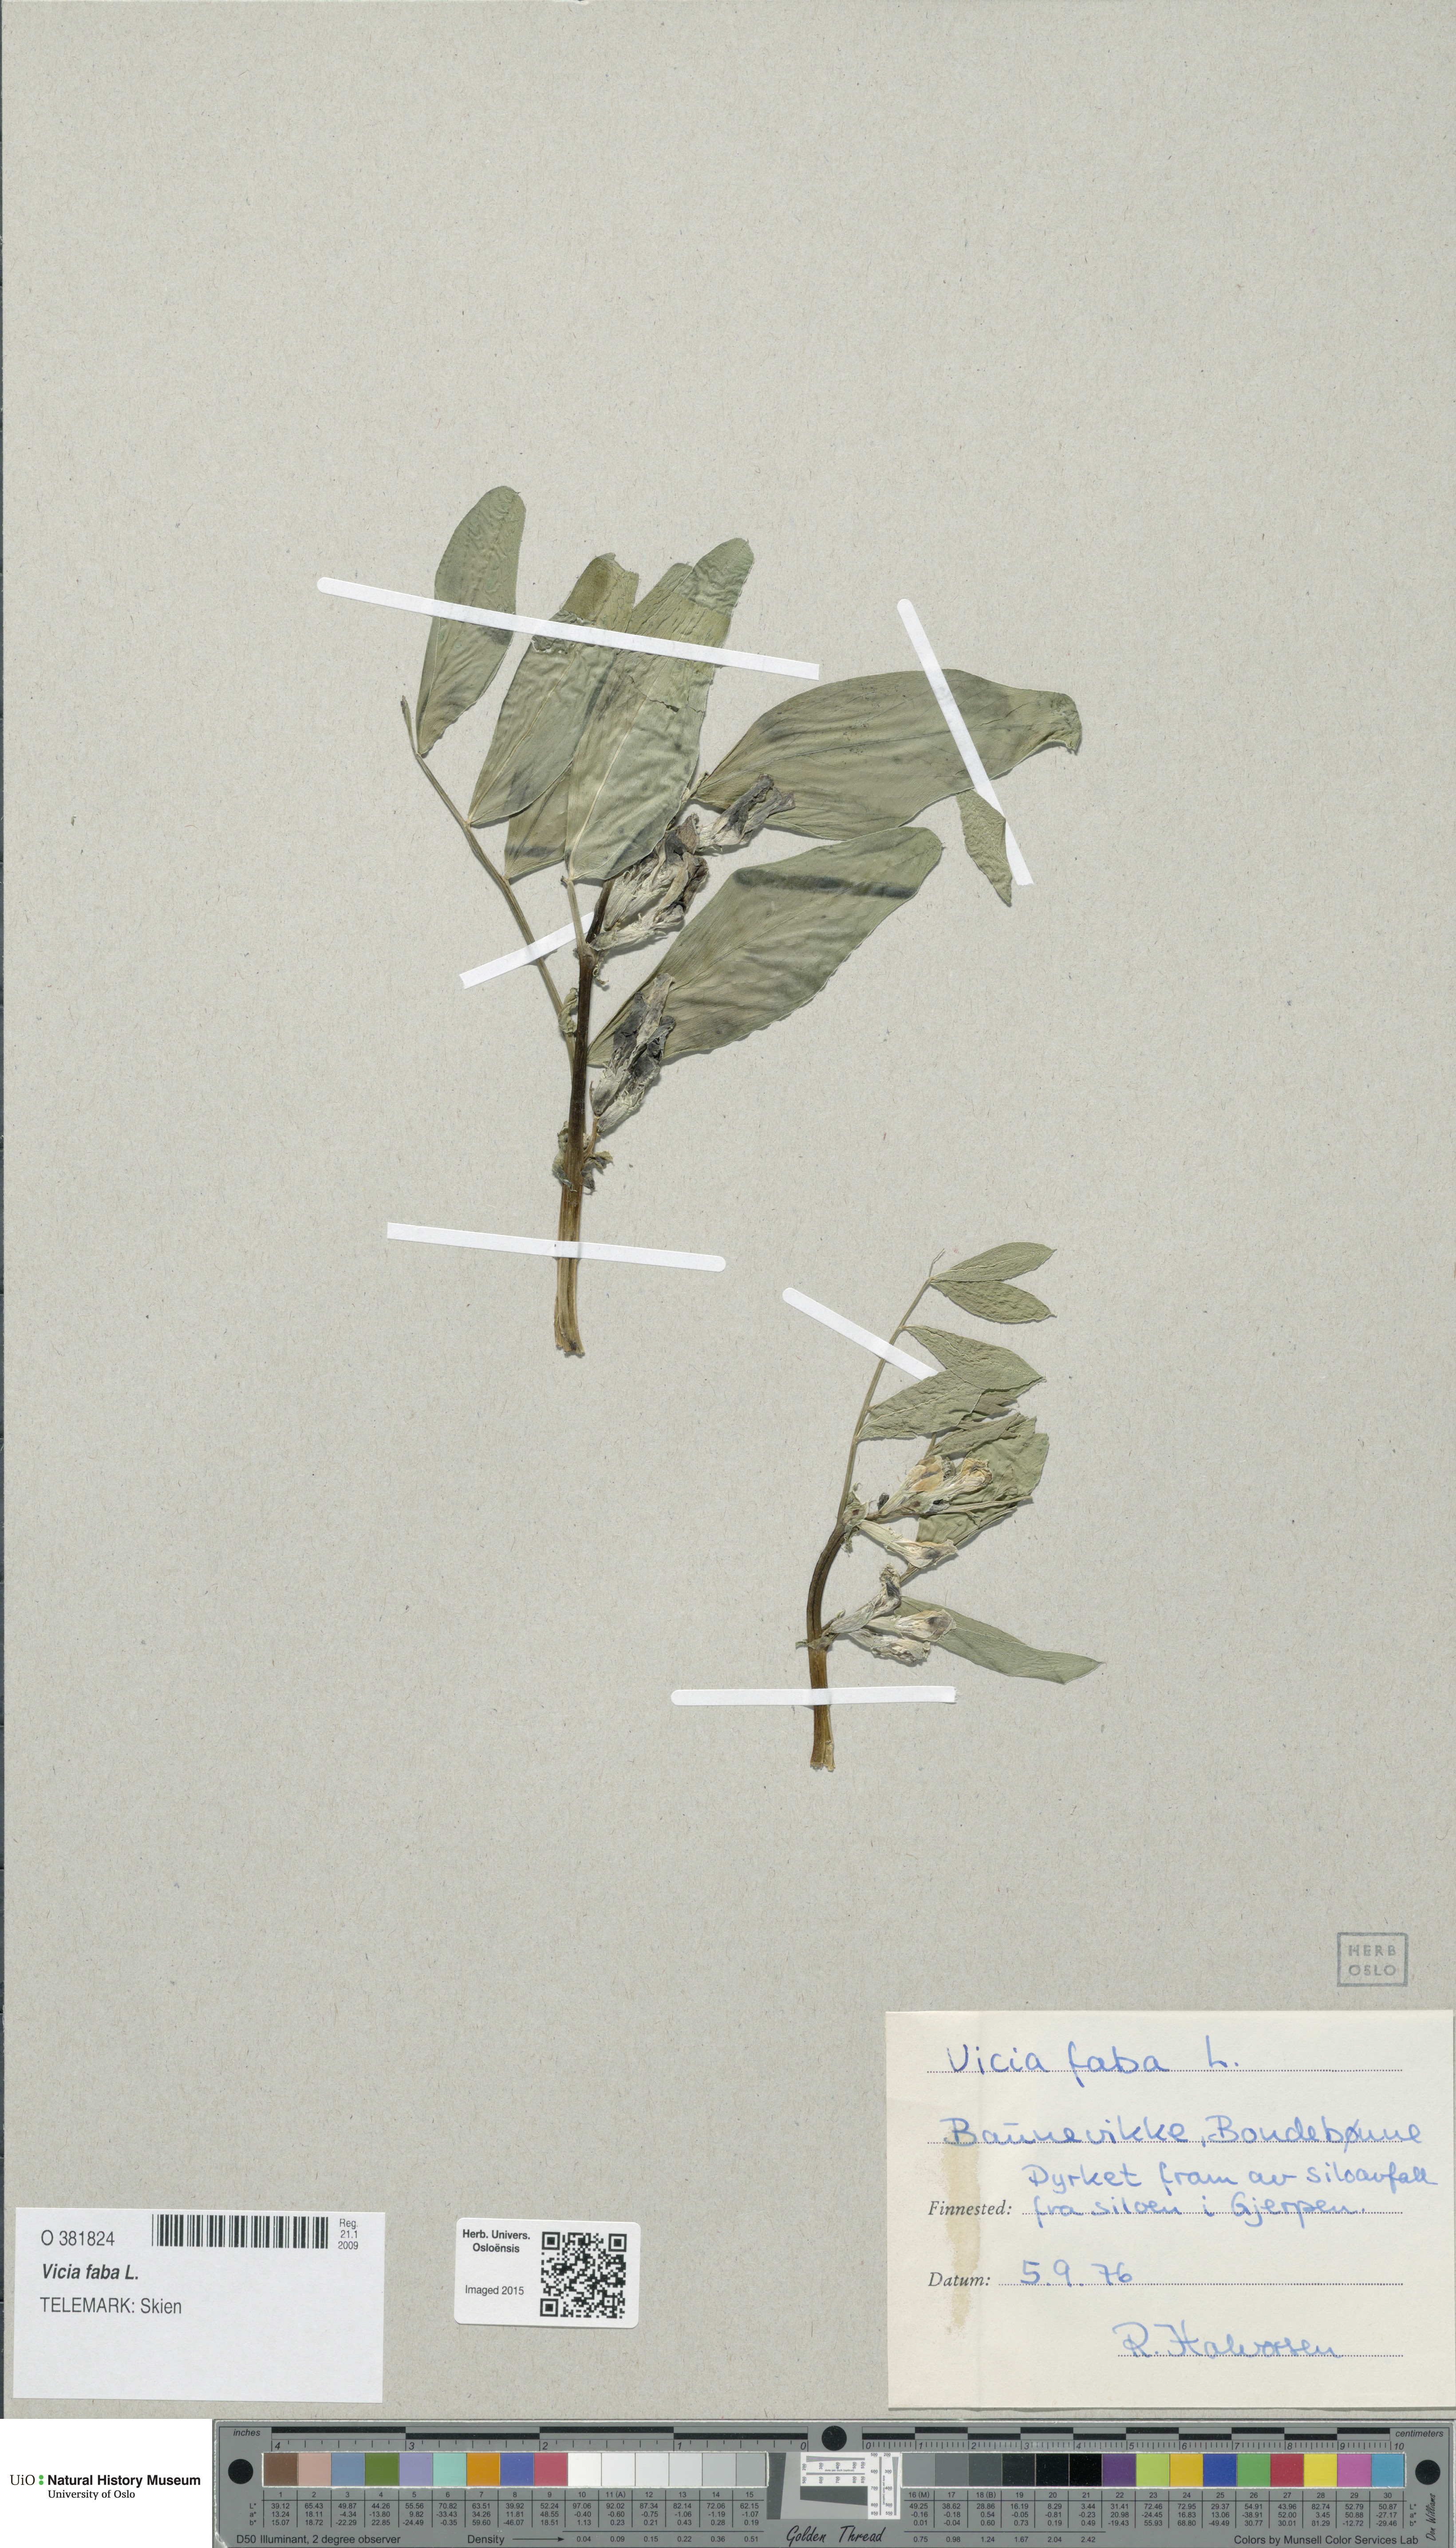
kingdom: Plantae
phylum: Tracheophyta
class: Magnoliopsida
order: Fabales
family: Fabaceae
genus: Vicia
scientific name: Vicia faba
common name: Broad bean
